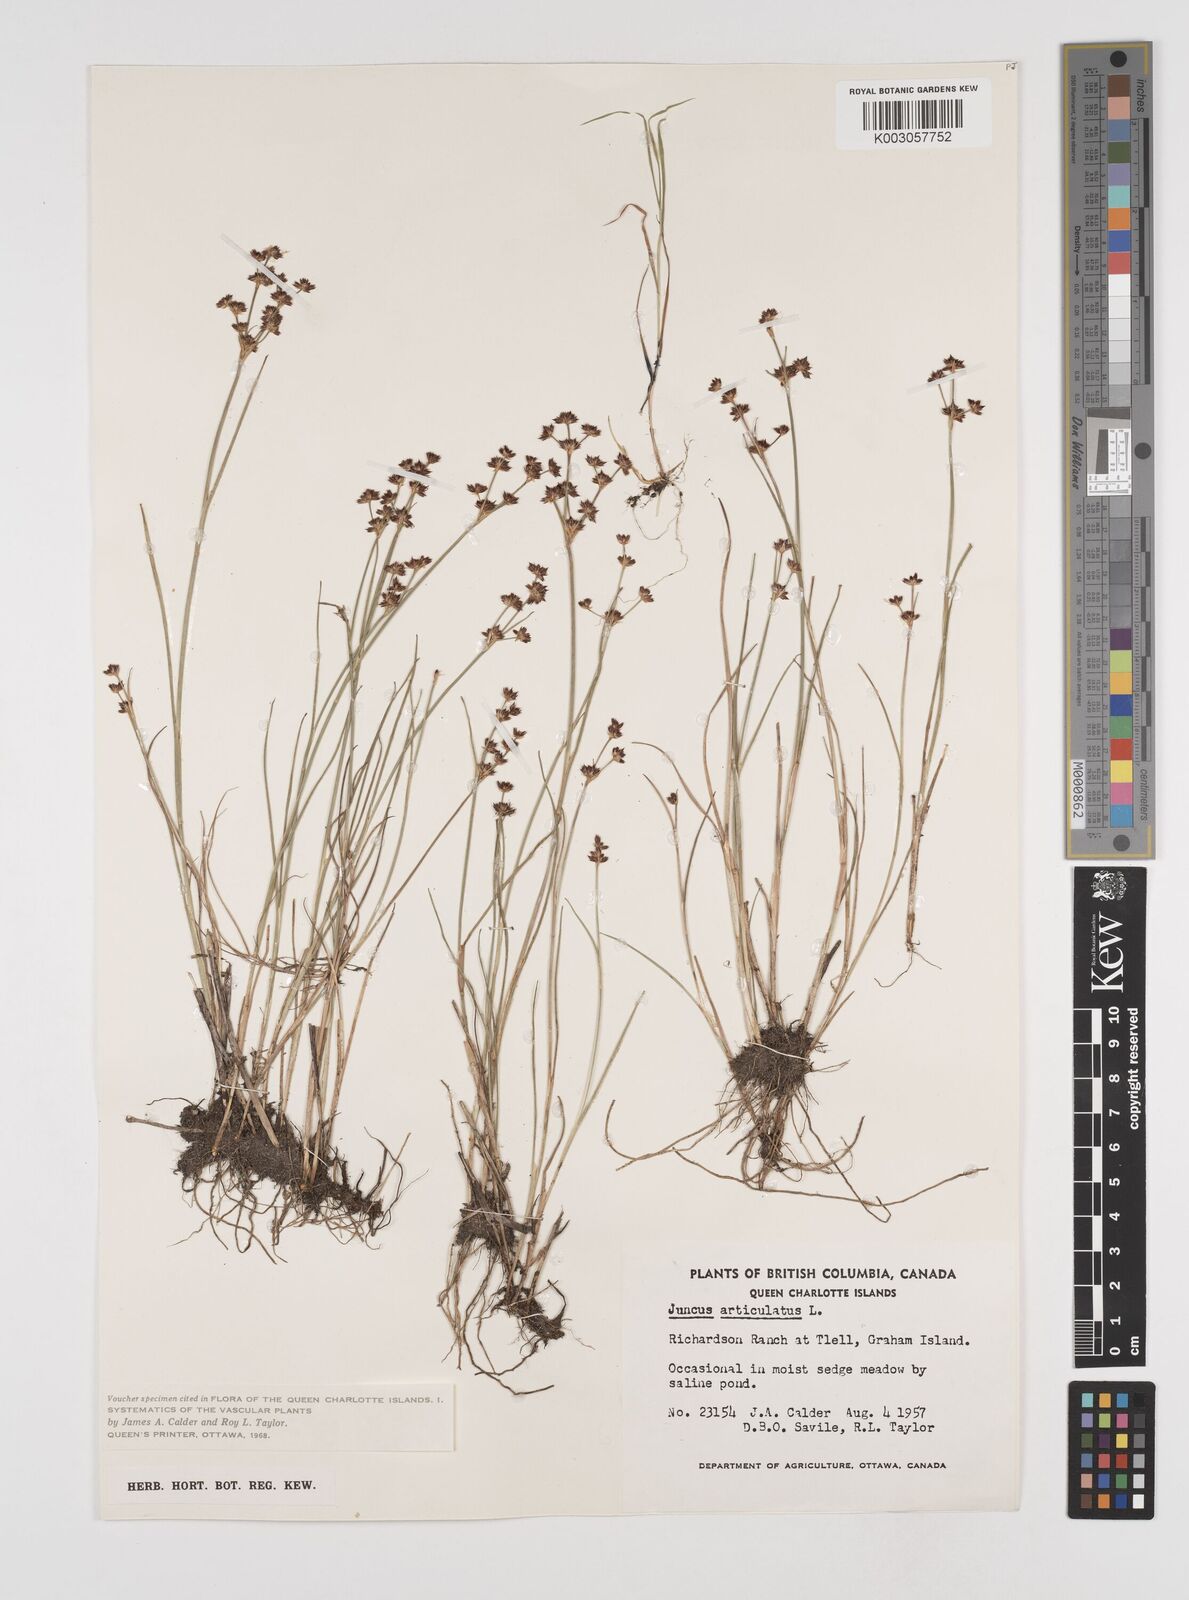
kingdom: Plantae
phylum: Tracheophyta
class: Liliopsida
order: Poales
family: Juncaceae
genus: Juncus
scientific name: Juncus articulatus
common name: Jointed rush
